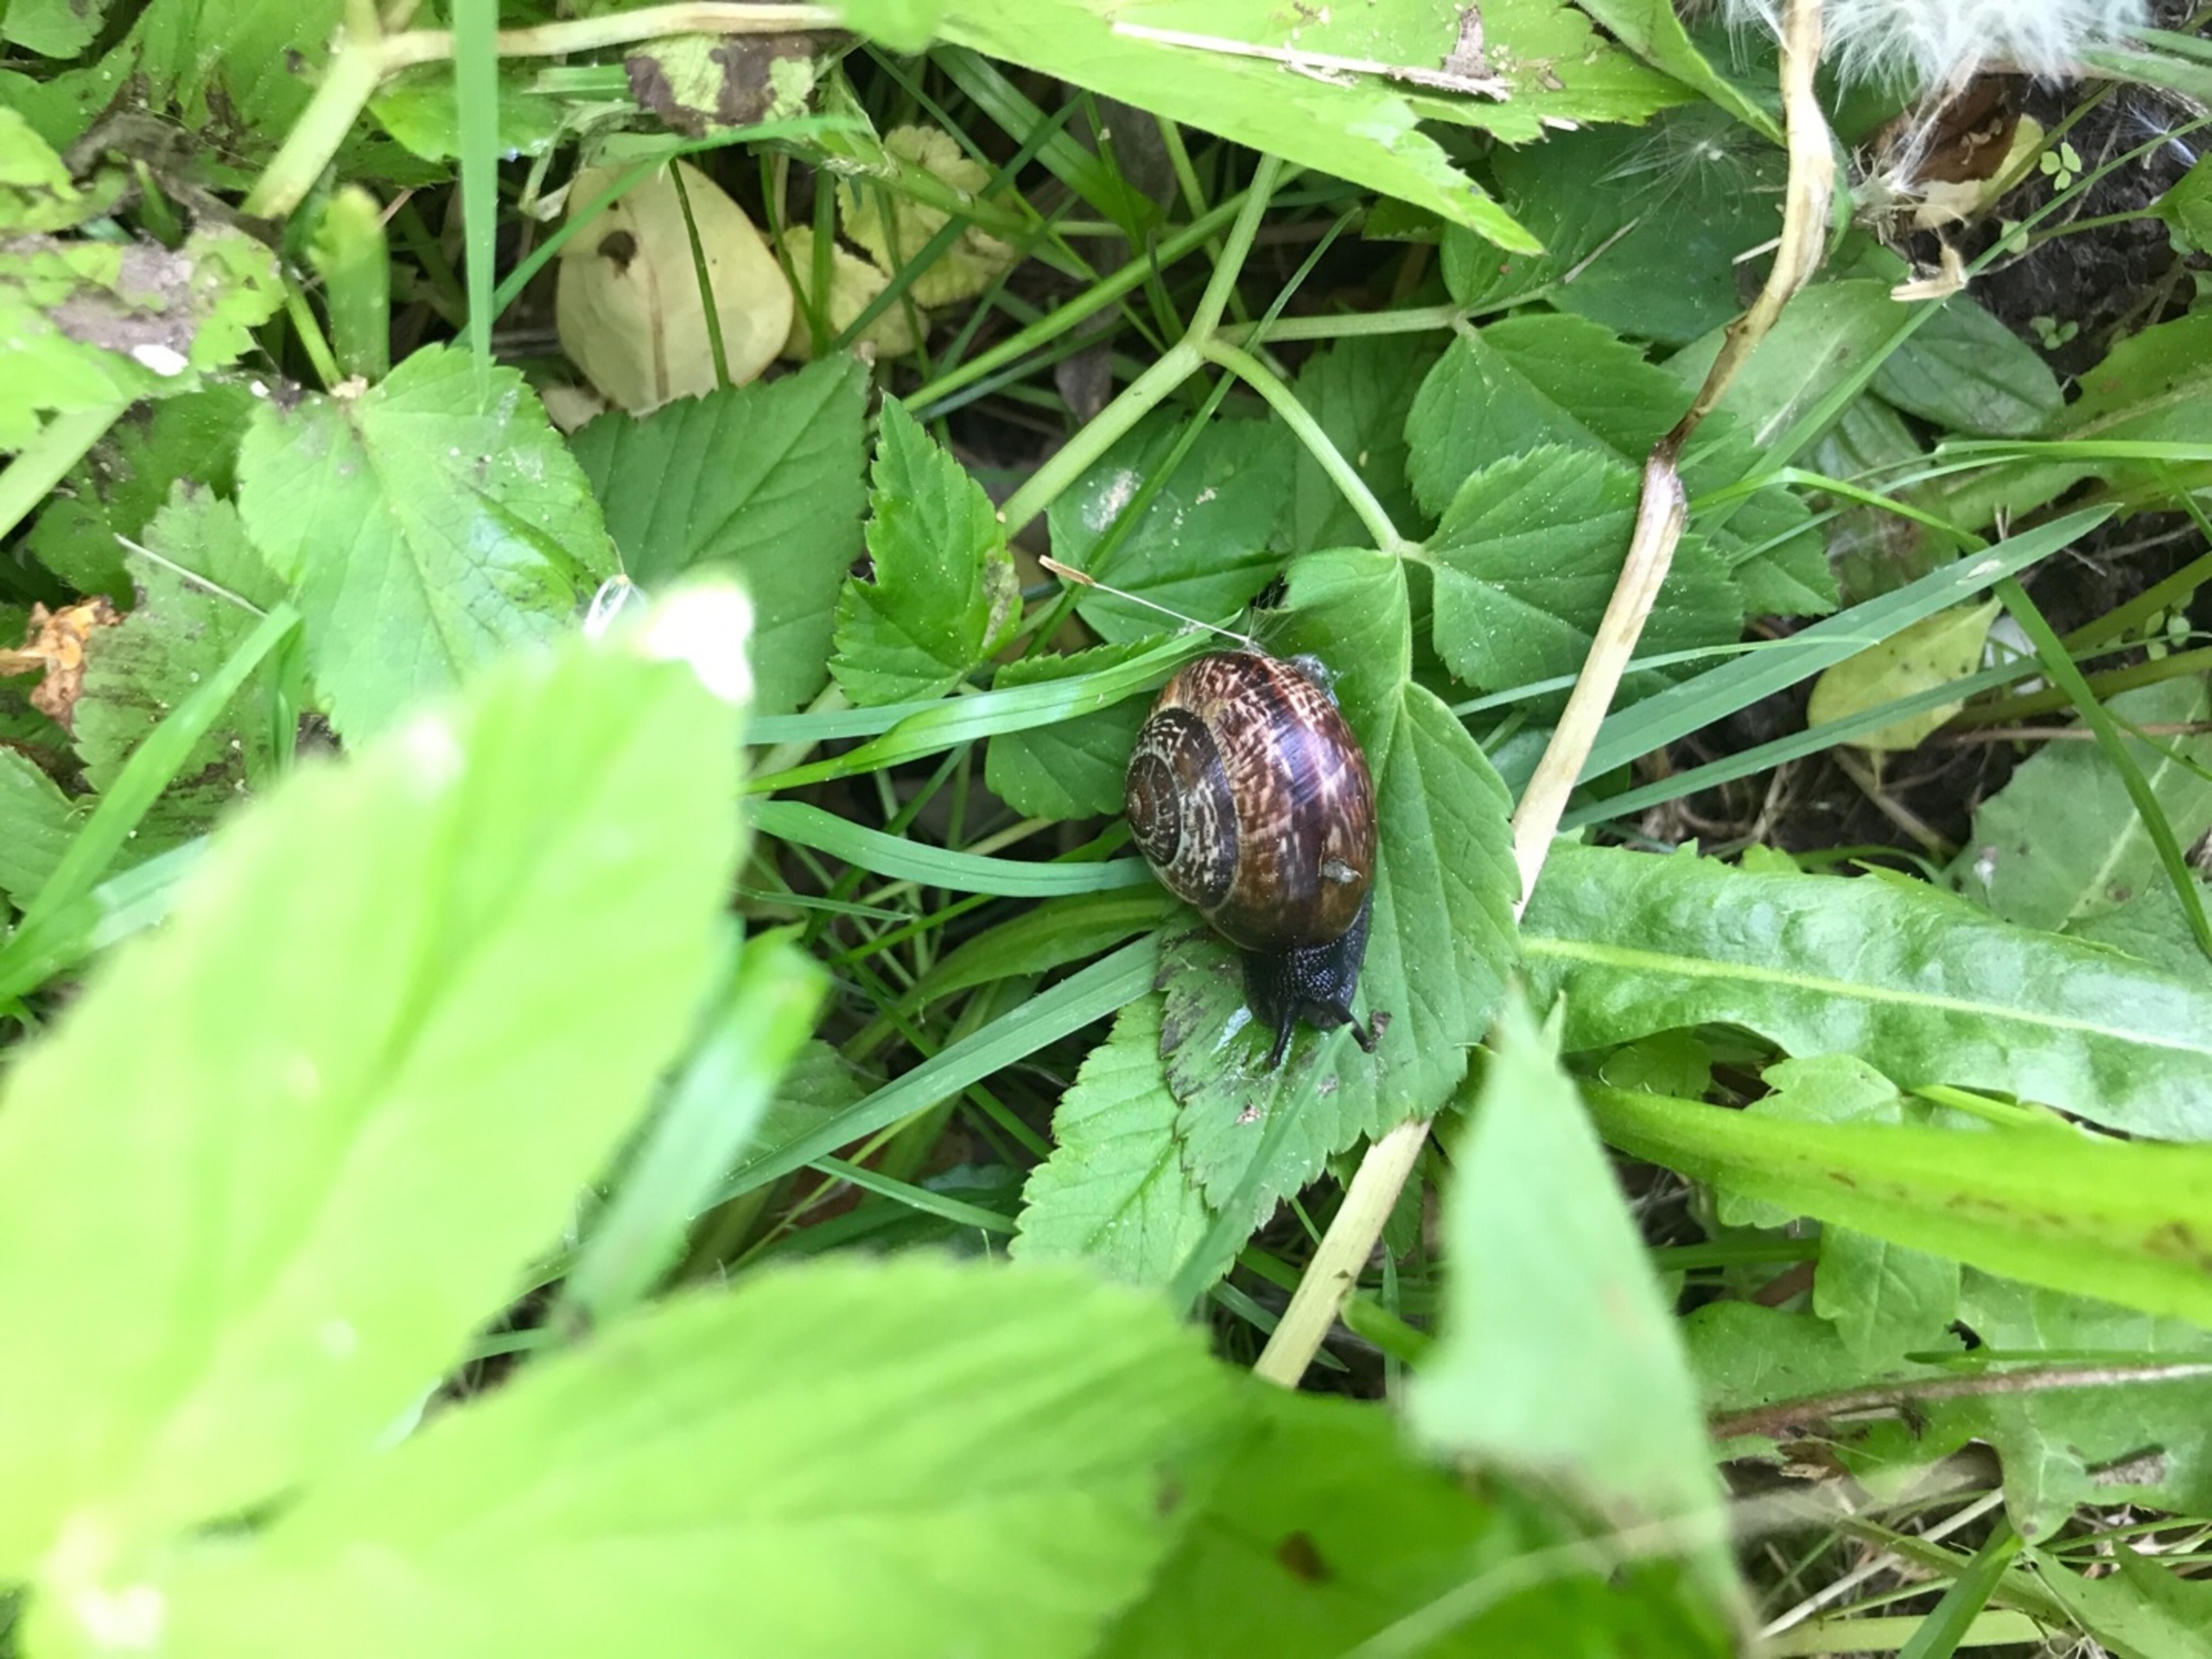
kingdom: Animalia
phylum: Mollusca
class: Gastropoda
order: Stylommatophora
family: Helicidae
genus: Arianta
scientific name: Arianta arbustorum
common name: Kratsnegl
